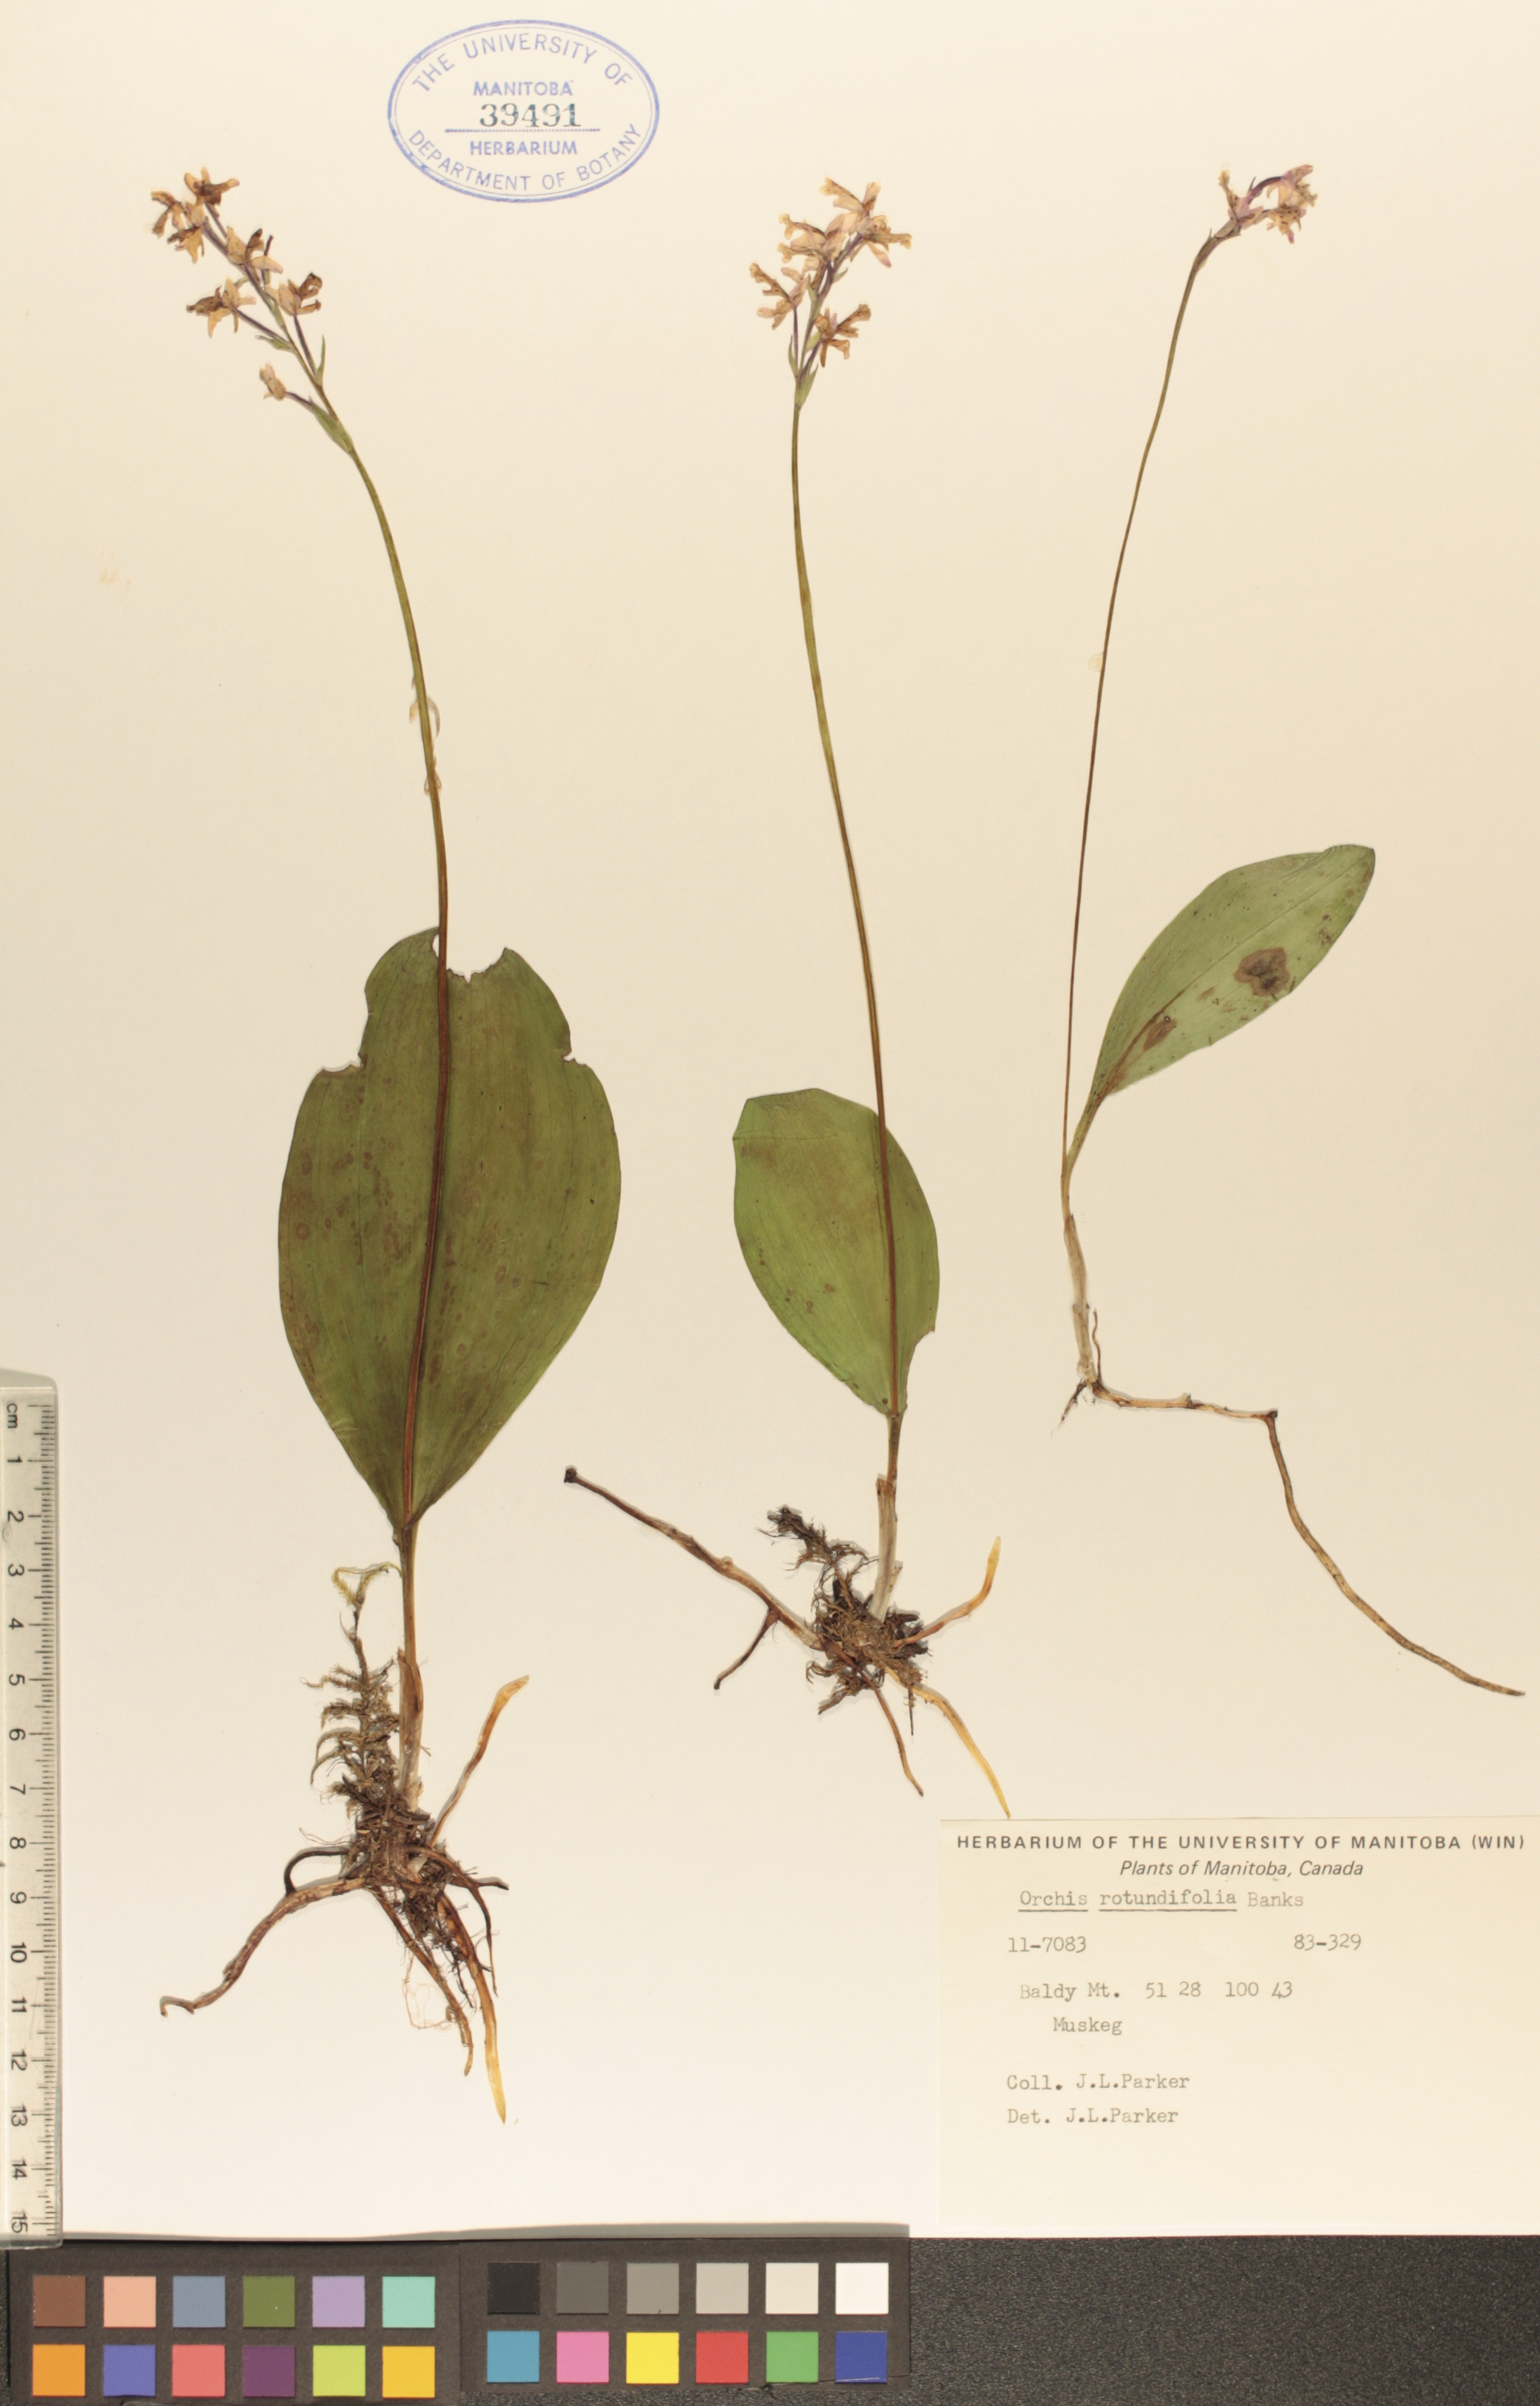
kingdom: Plantae
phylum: Tracheophyta
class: Liliopsida
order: Asparagales
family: Orchidaceae
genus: Galearis
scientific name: Galearis rotundifolia
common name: One-leaved orchis
